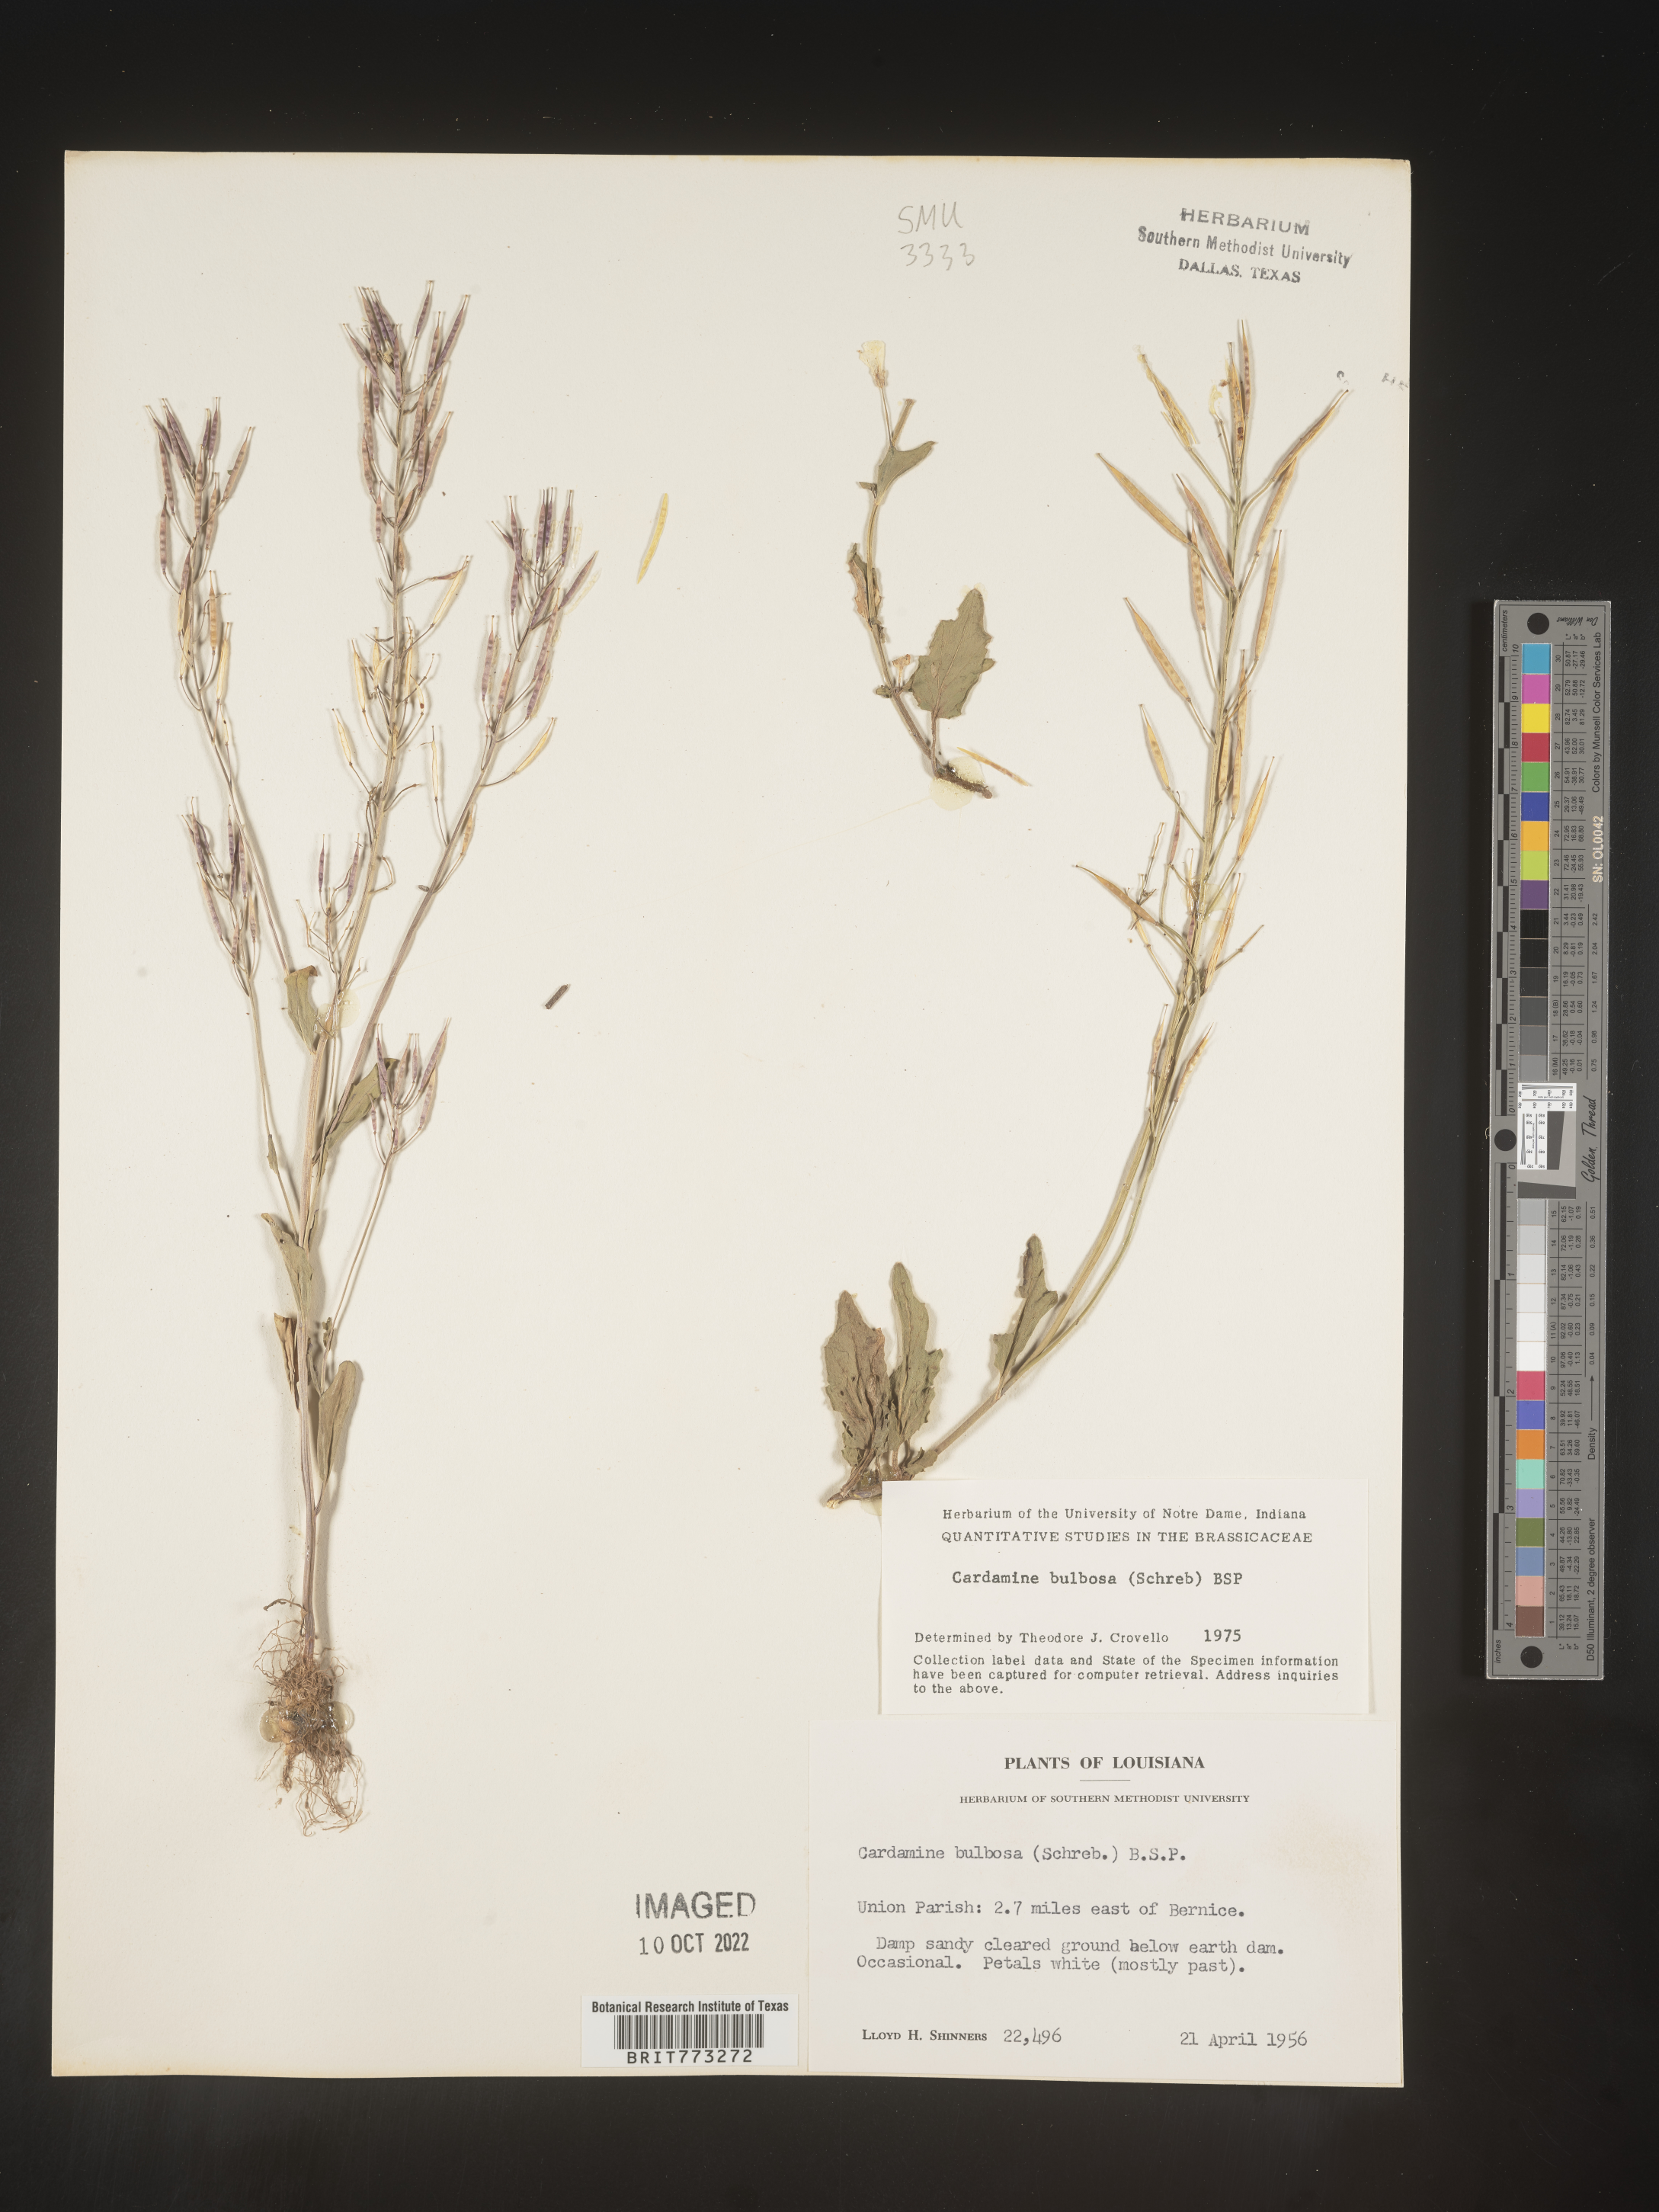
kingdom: Plantae
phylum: Tracheophyta
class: Magnoliopsida
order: Brassicales
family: Brassicaceae
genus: Cardamine
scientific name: Cardamine bulbosa
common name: Spring cress
